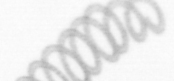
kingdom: Chromista
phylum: Ochrophyta
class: Bacillariophyceae
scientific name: Bacillariophyceae
